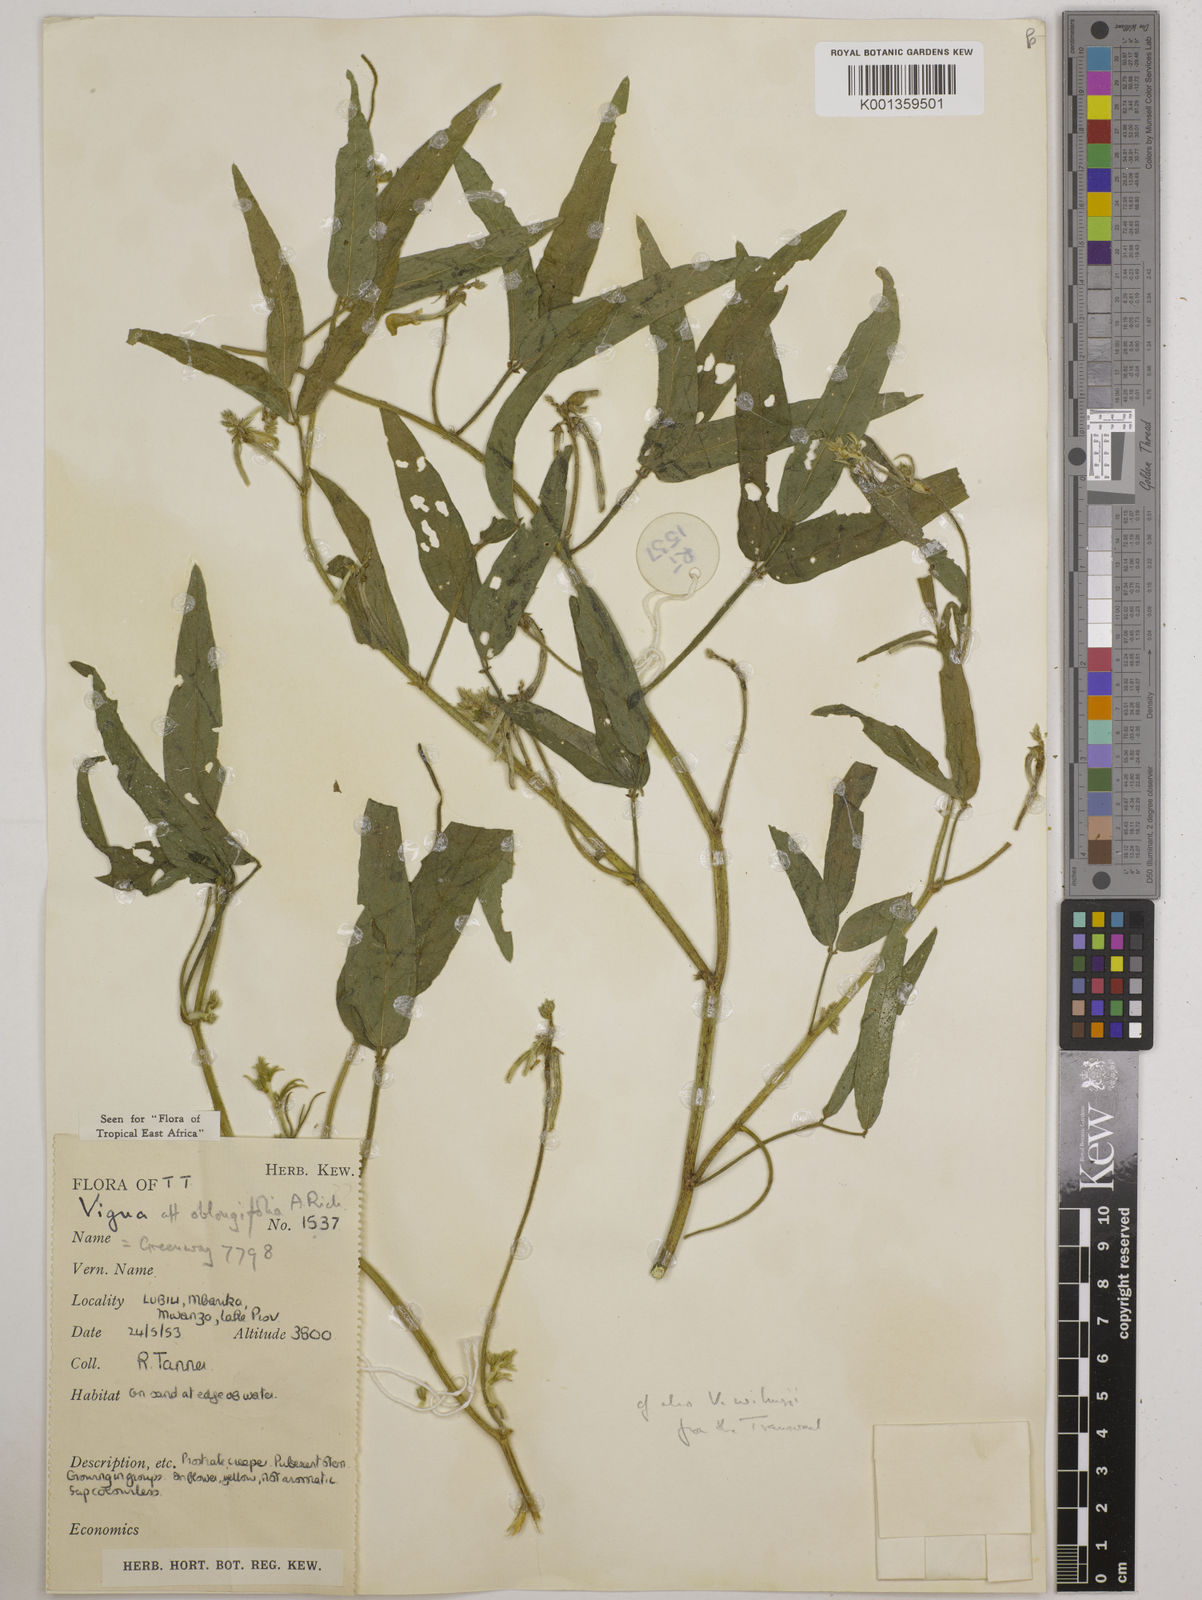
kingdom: Plantae
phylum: Tracheophyta
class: Magnoliopsida
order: Fabales
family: Fabaceae
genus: Vigna
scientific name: Vigna oblongifolia
